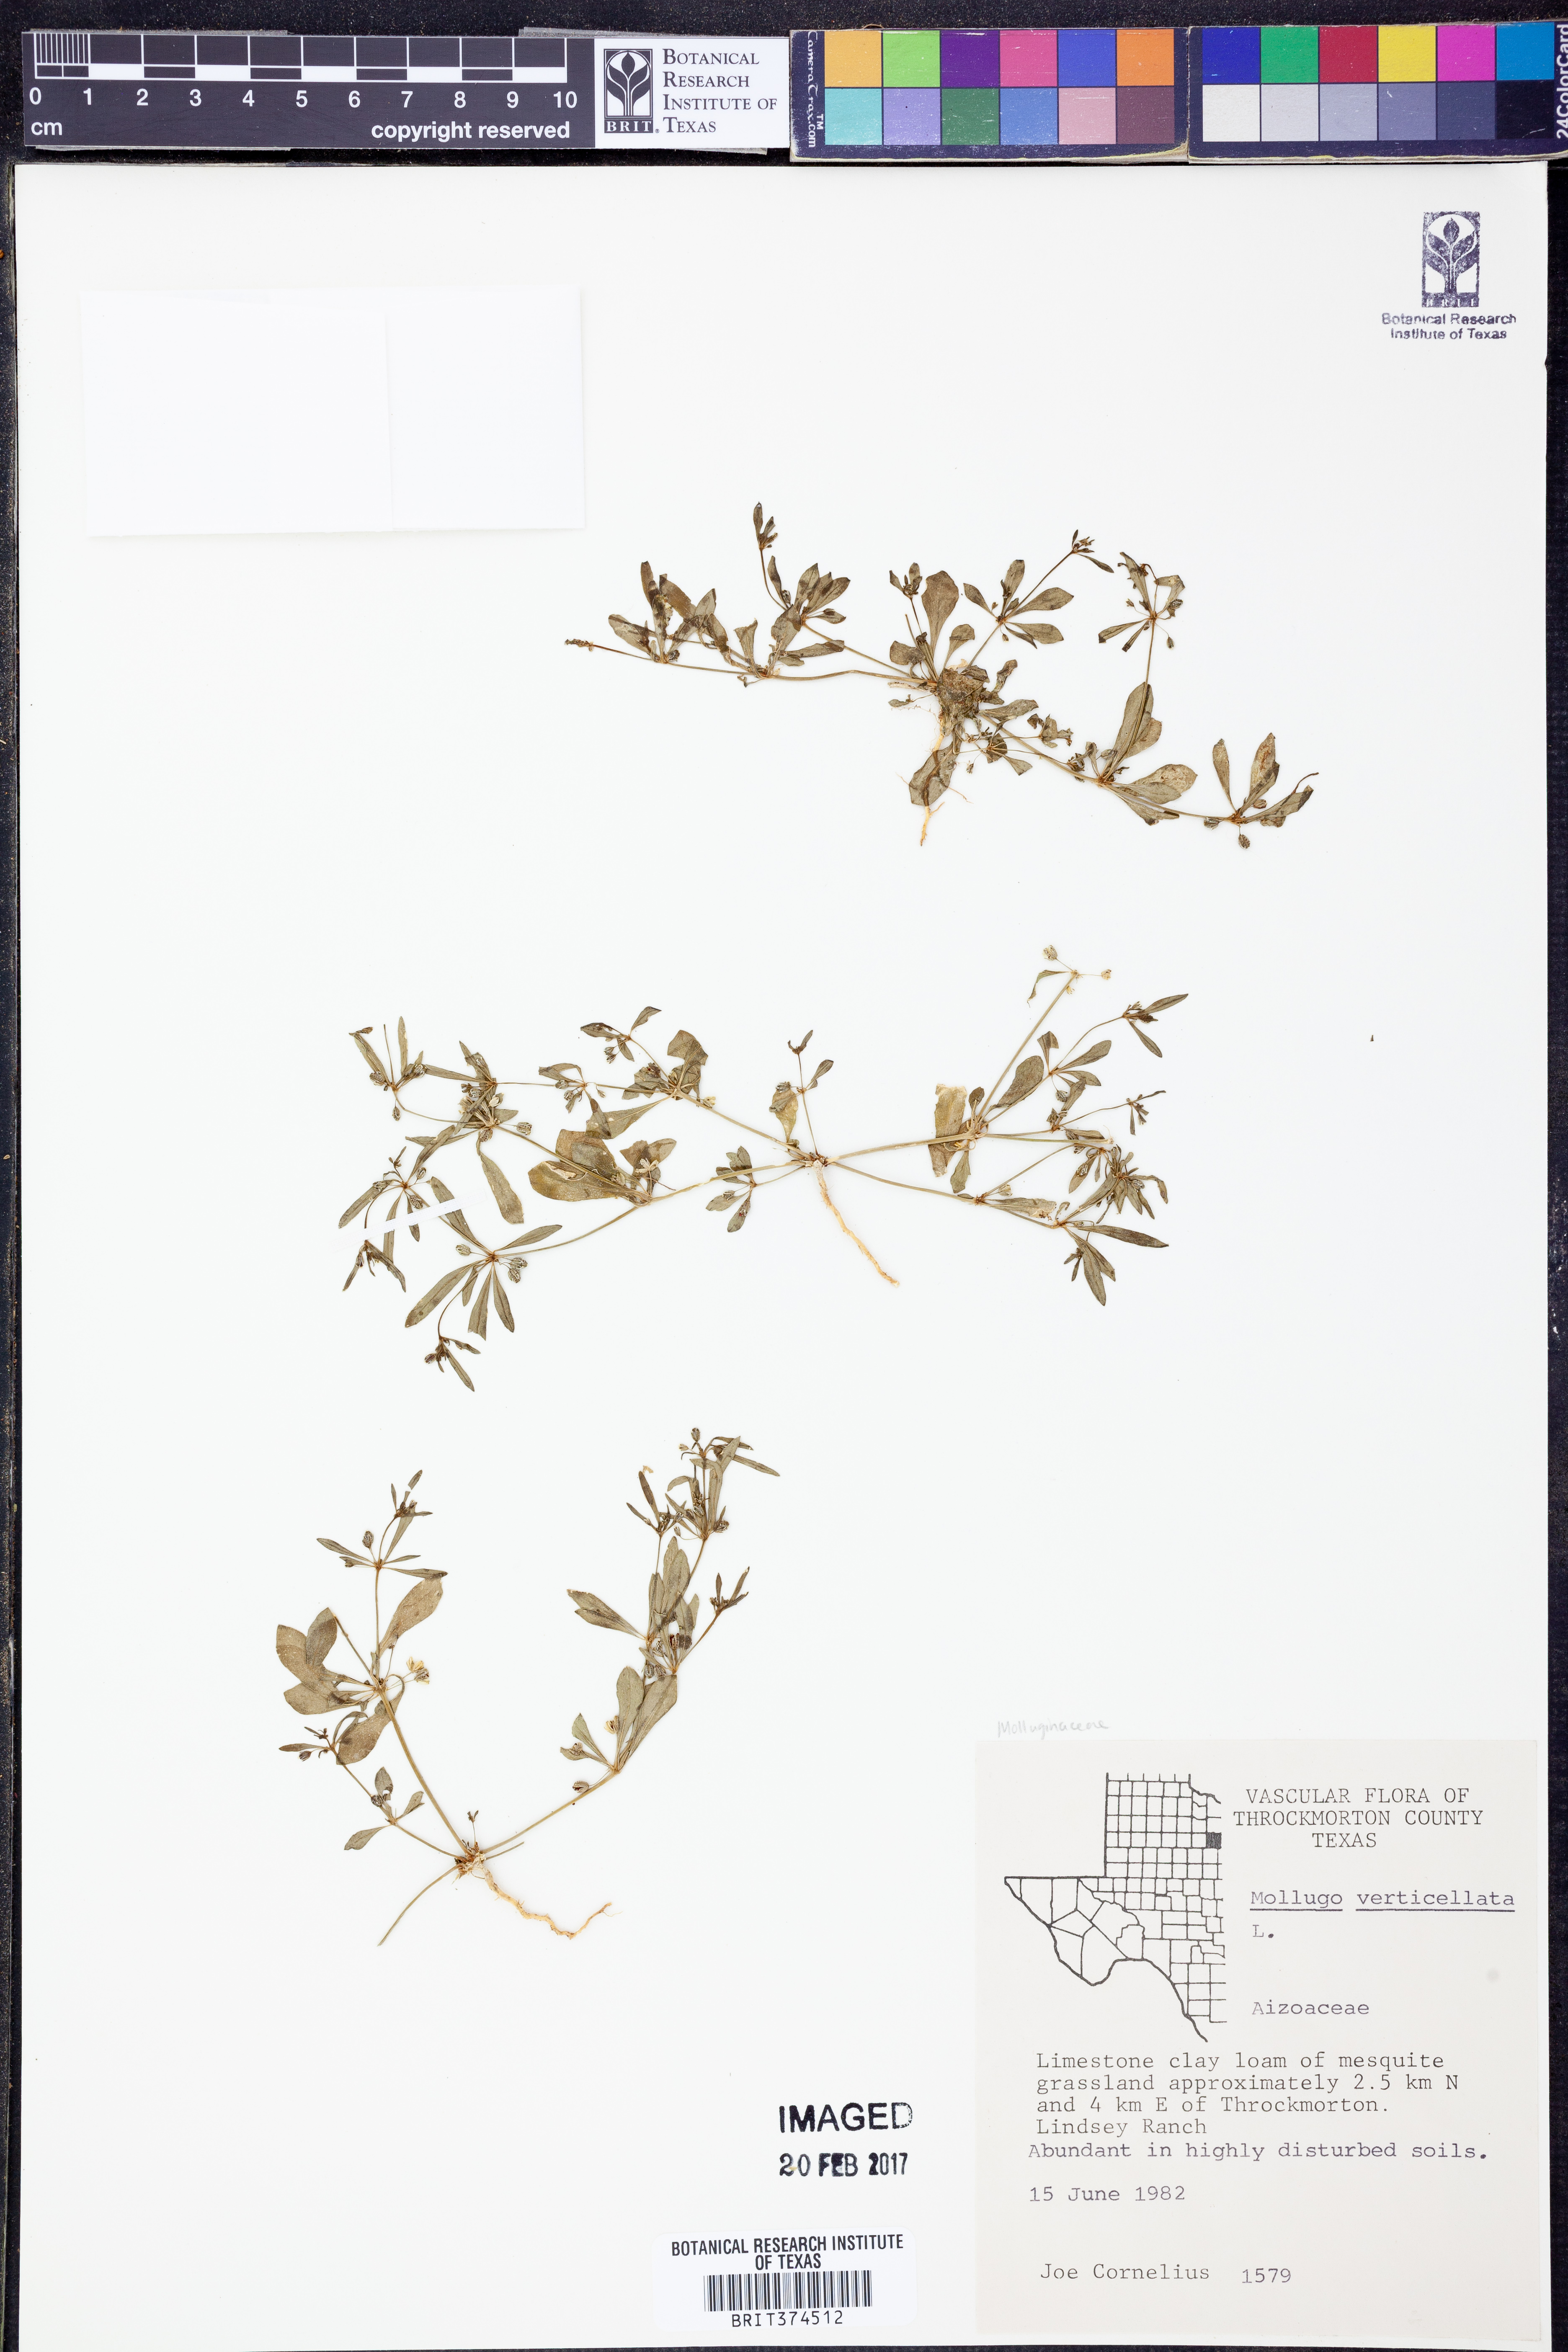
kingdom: Plantae
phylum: Tracheophyta
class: Magnoliopsida
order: Caryophyllales
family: Molluginaceae
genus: Mollugo
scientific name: Mollugo verticillata
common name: Green carpetweed
